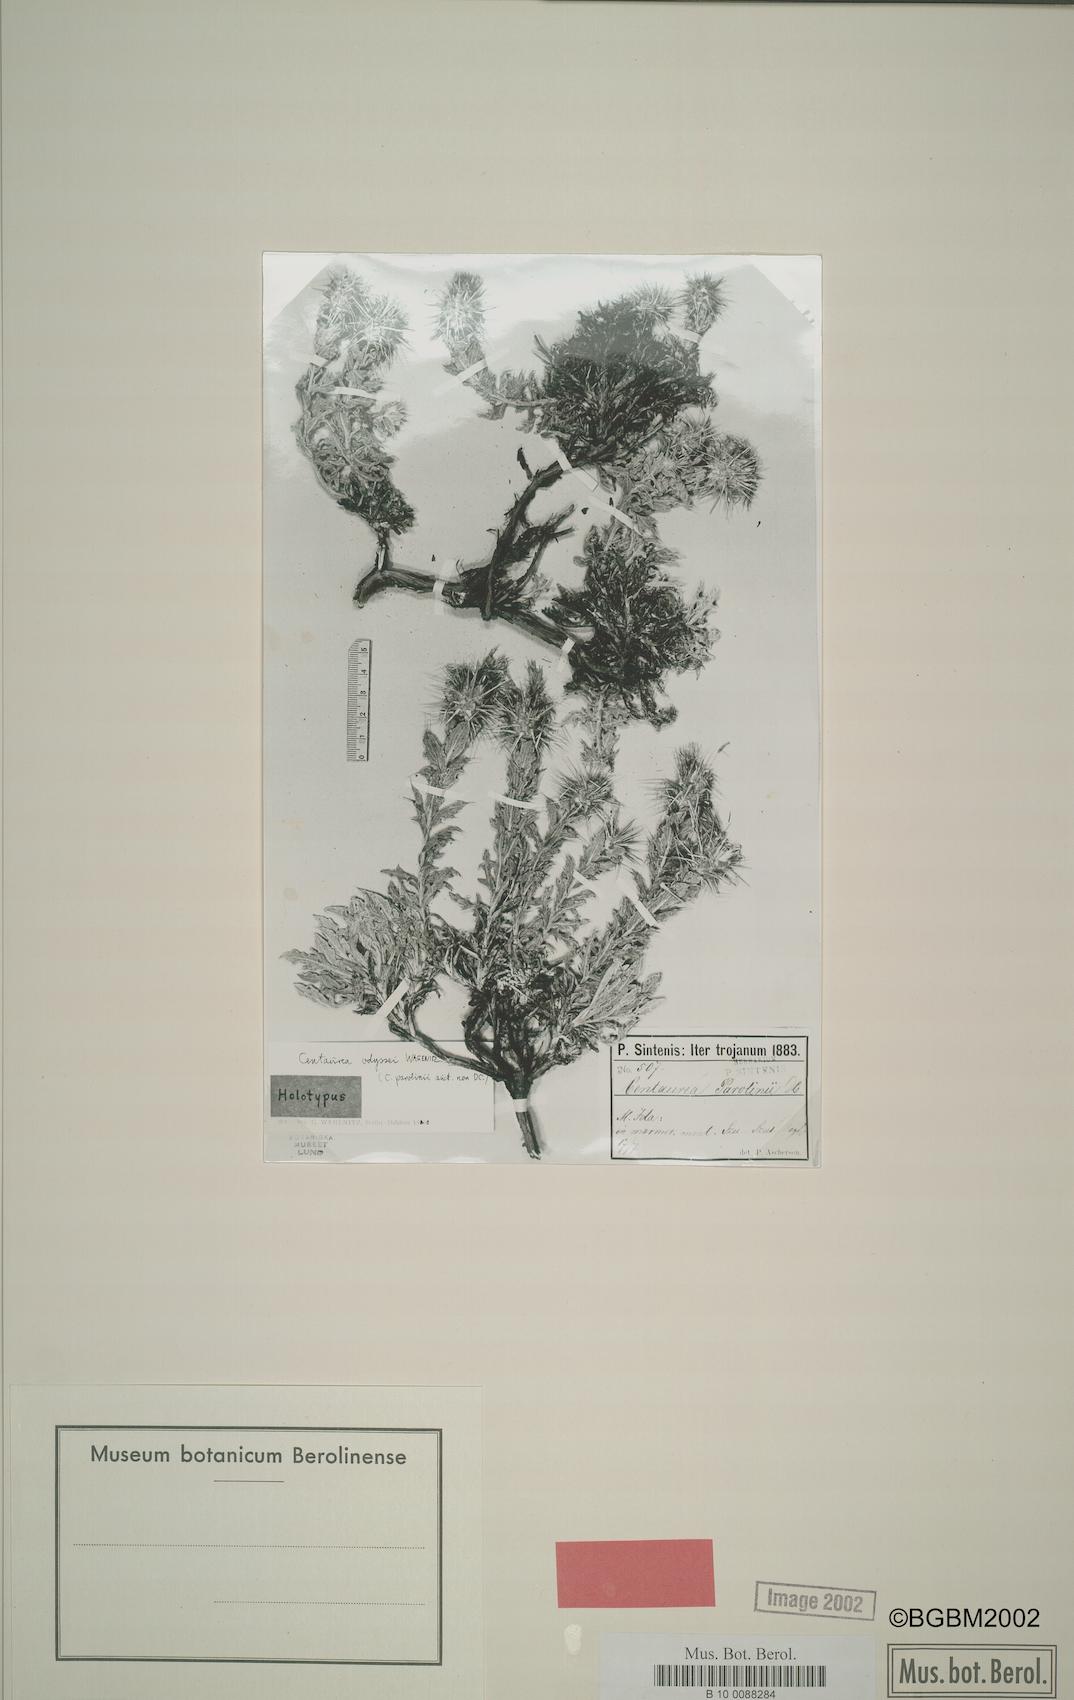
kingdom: Plantae
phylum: Tracheophyta
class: Magnoliopsida
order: Asterales
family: Asteraceae
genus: Centaurea
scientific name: Centaurea odyssei
